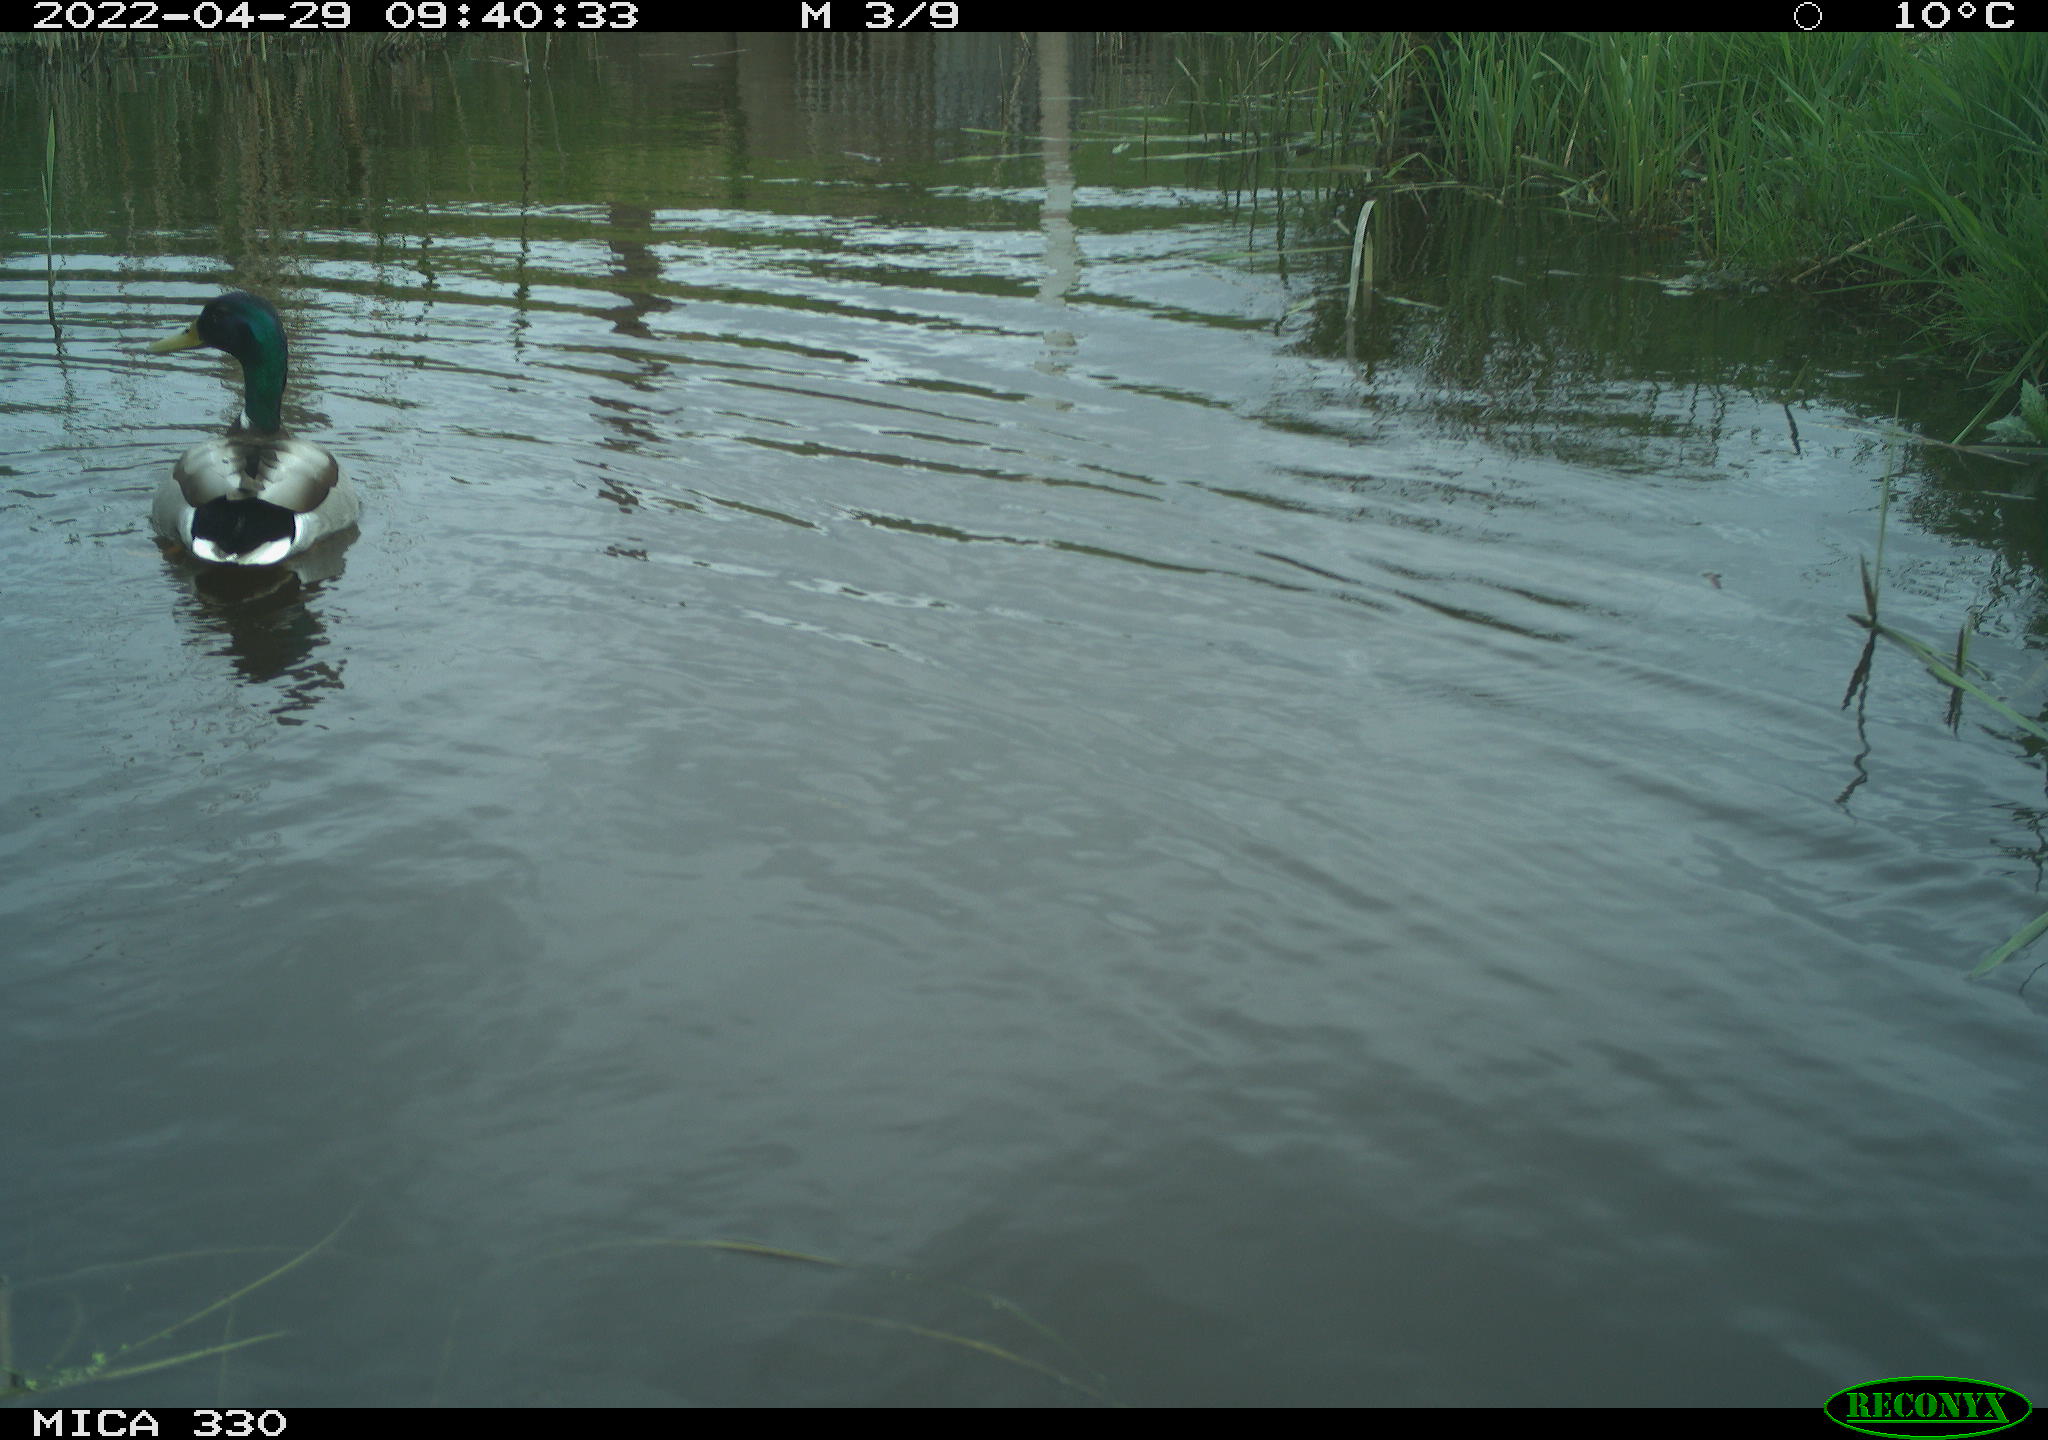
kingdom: Animalia
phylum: Chordata
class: Aves
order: Anseriformes
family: Anatidae
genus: Anas
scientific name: Anas platyrhynchos
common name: Mallard
